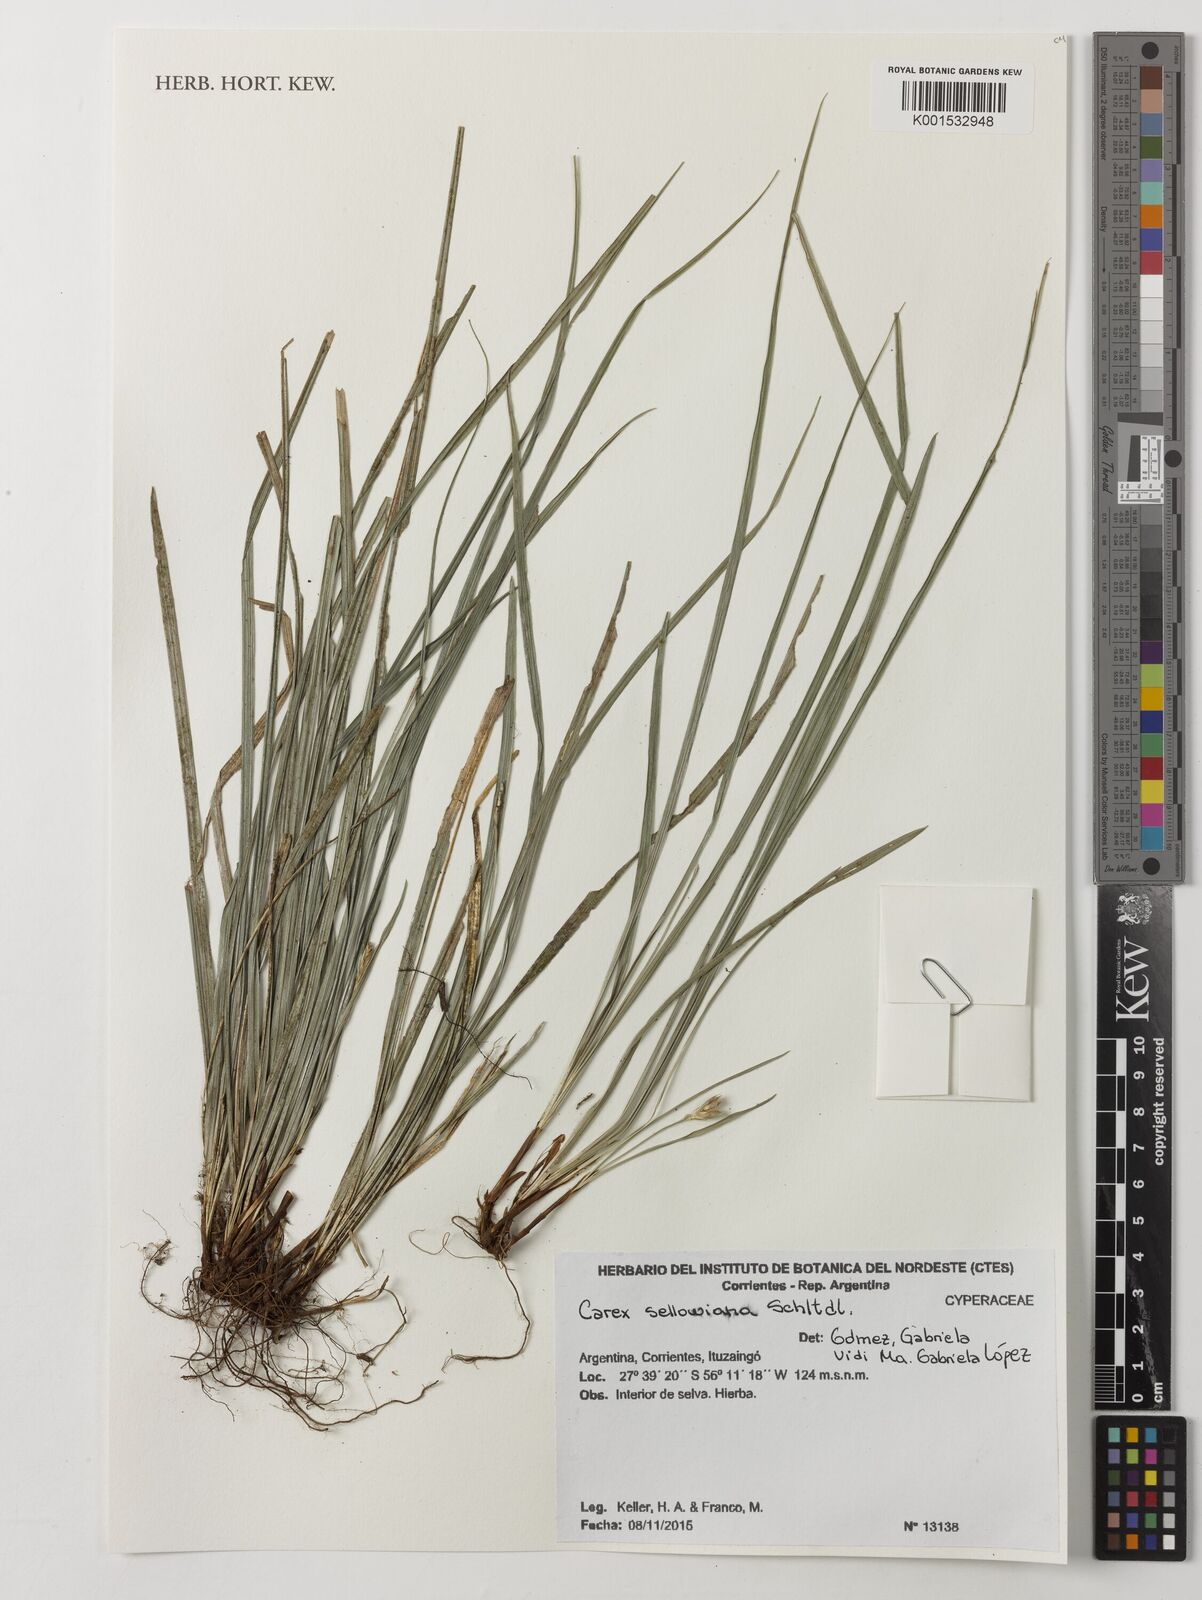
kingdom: Plantae
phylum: Tracheophyta
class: Liliopsida
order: Poales
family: Cyperaceae
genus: Carex
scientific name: Carex sellowiana
